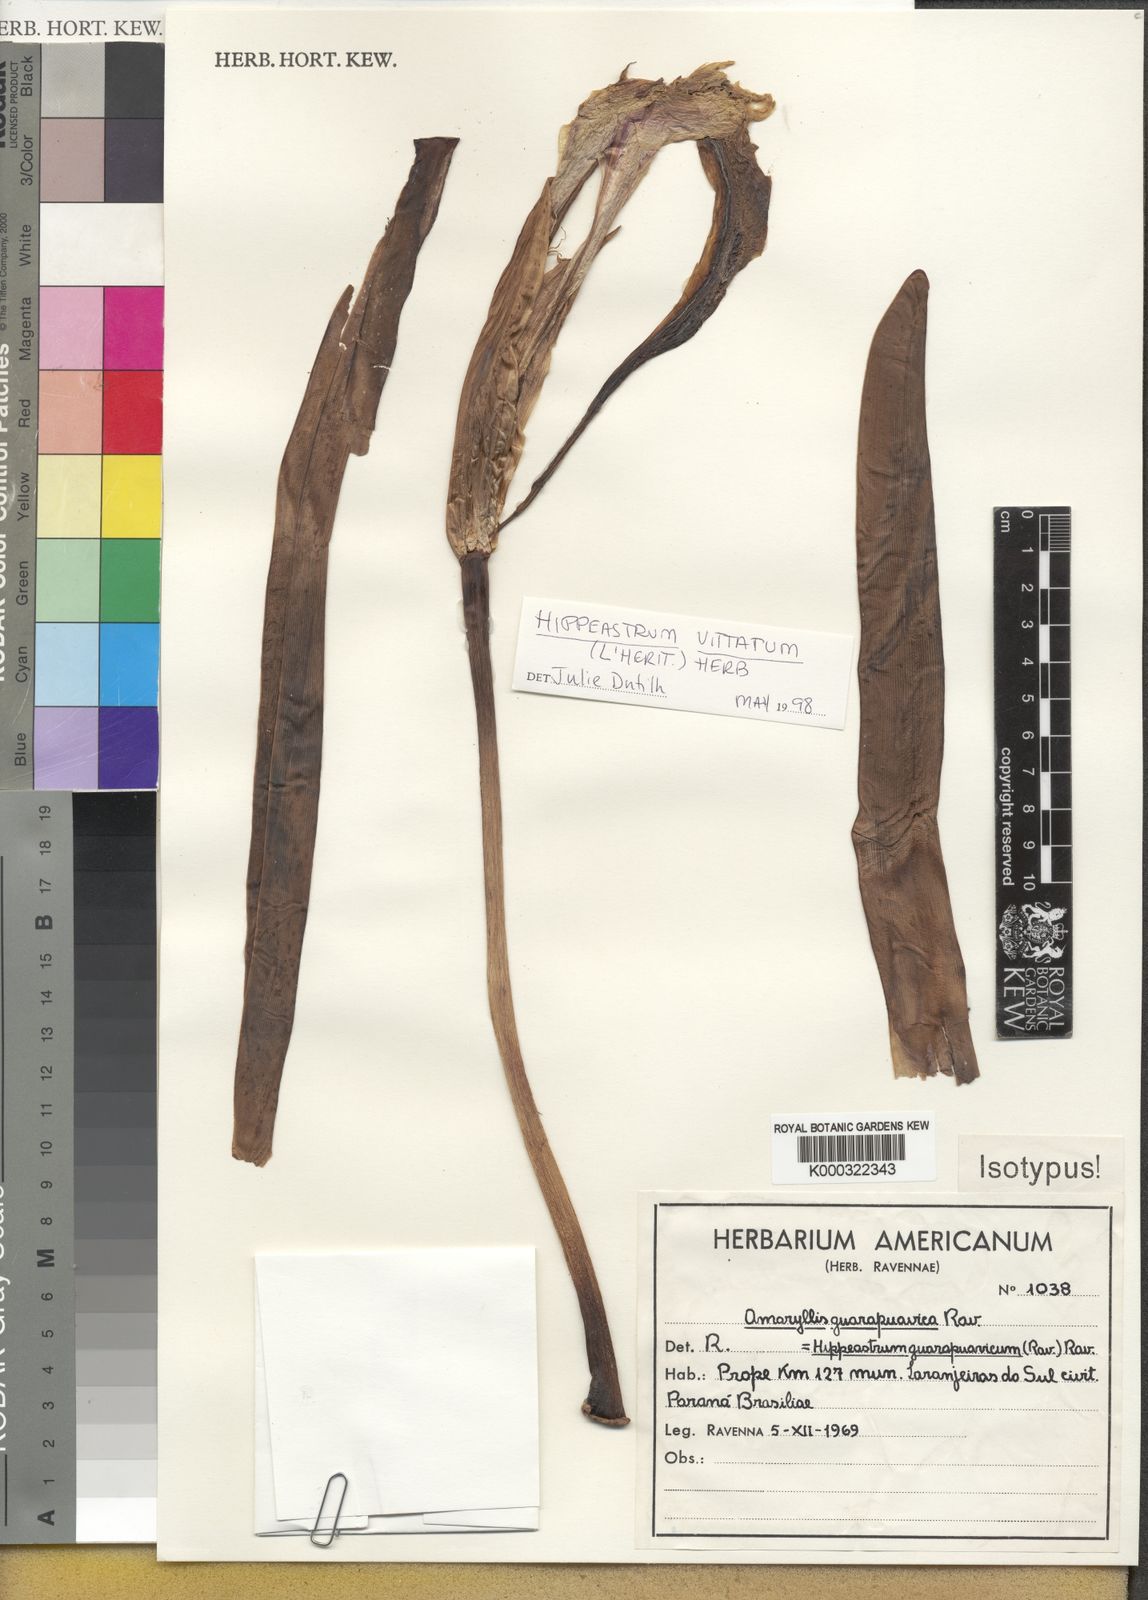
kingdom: Plantae
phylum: Tracheophyta
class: Liliopsida
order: Asparagales
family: Amaryllidaceae
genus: Hippeastrum
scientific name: Hippeastrum vittatum
